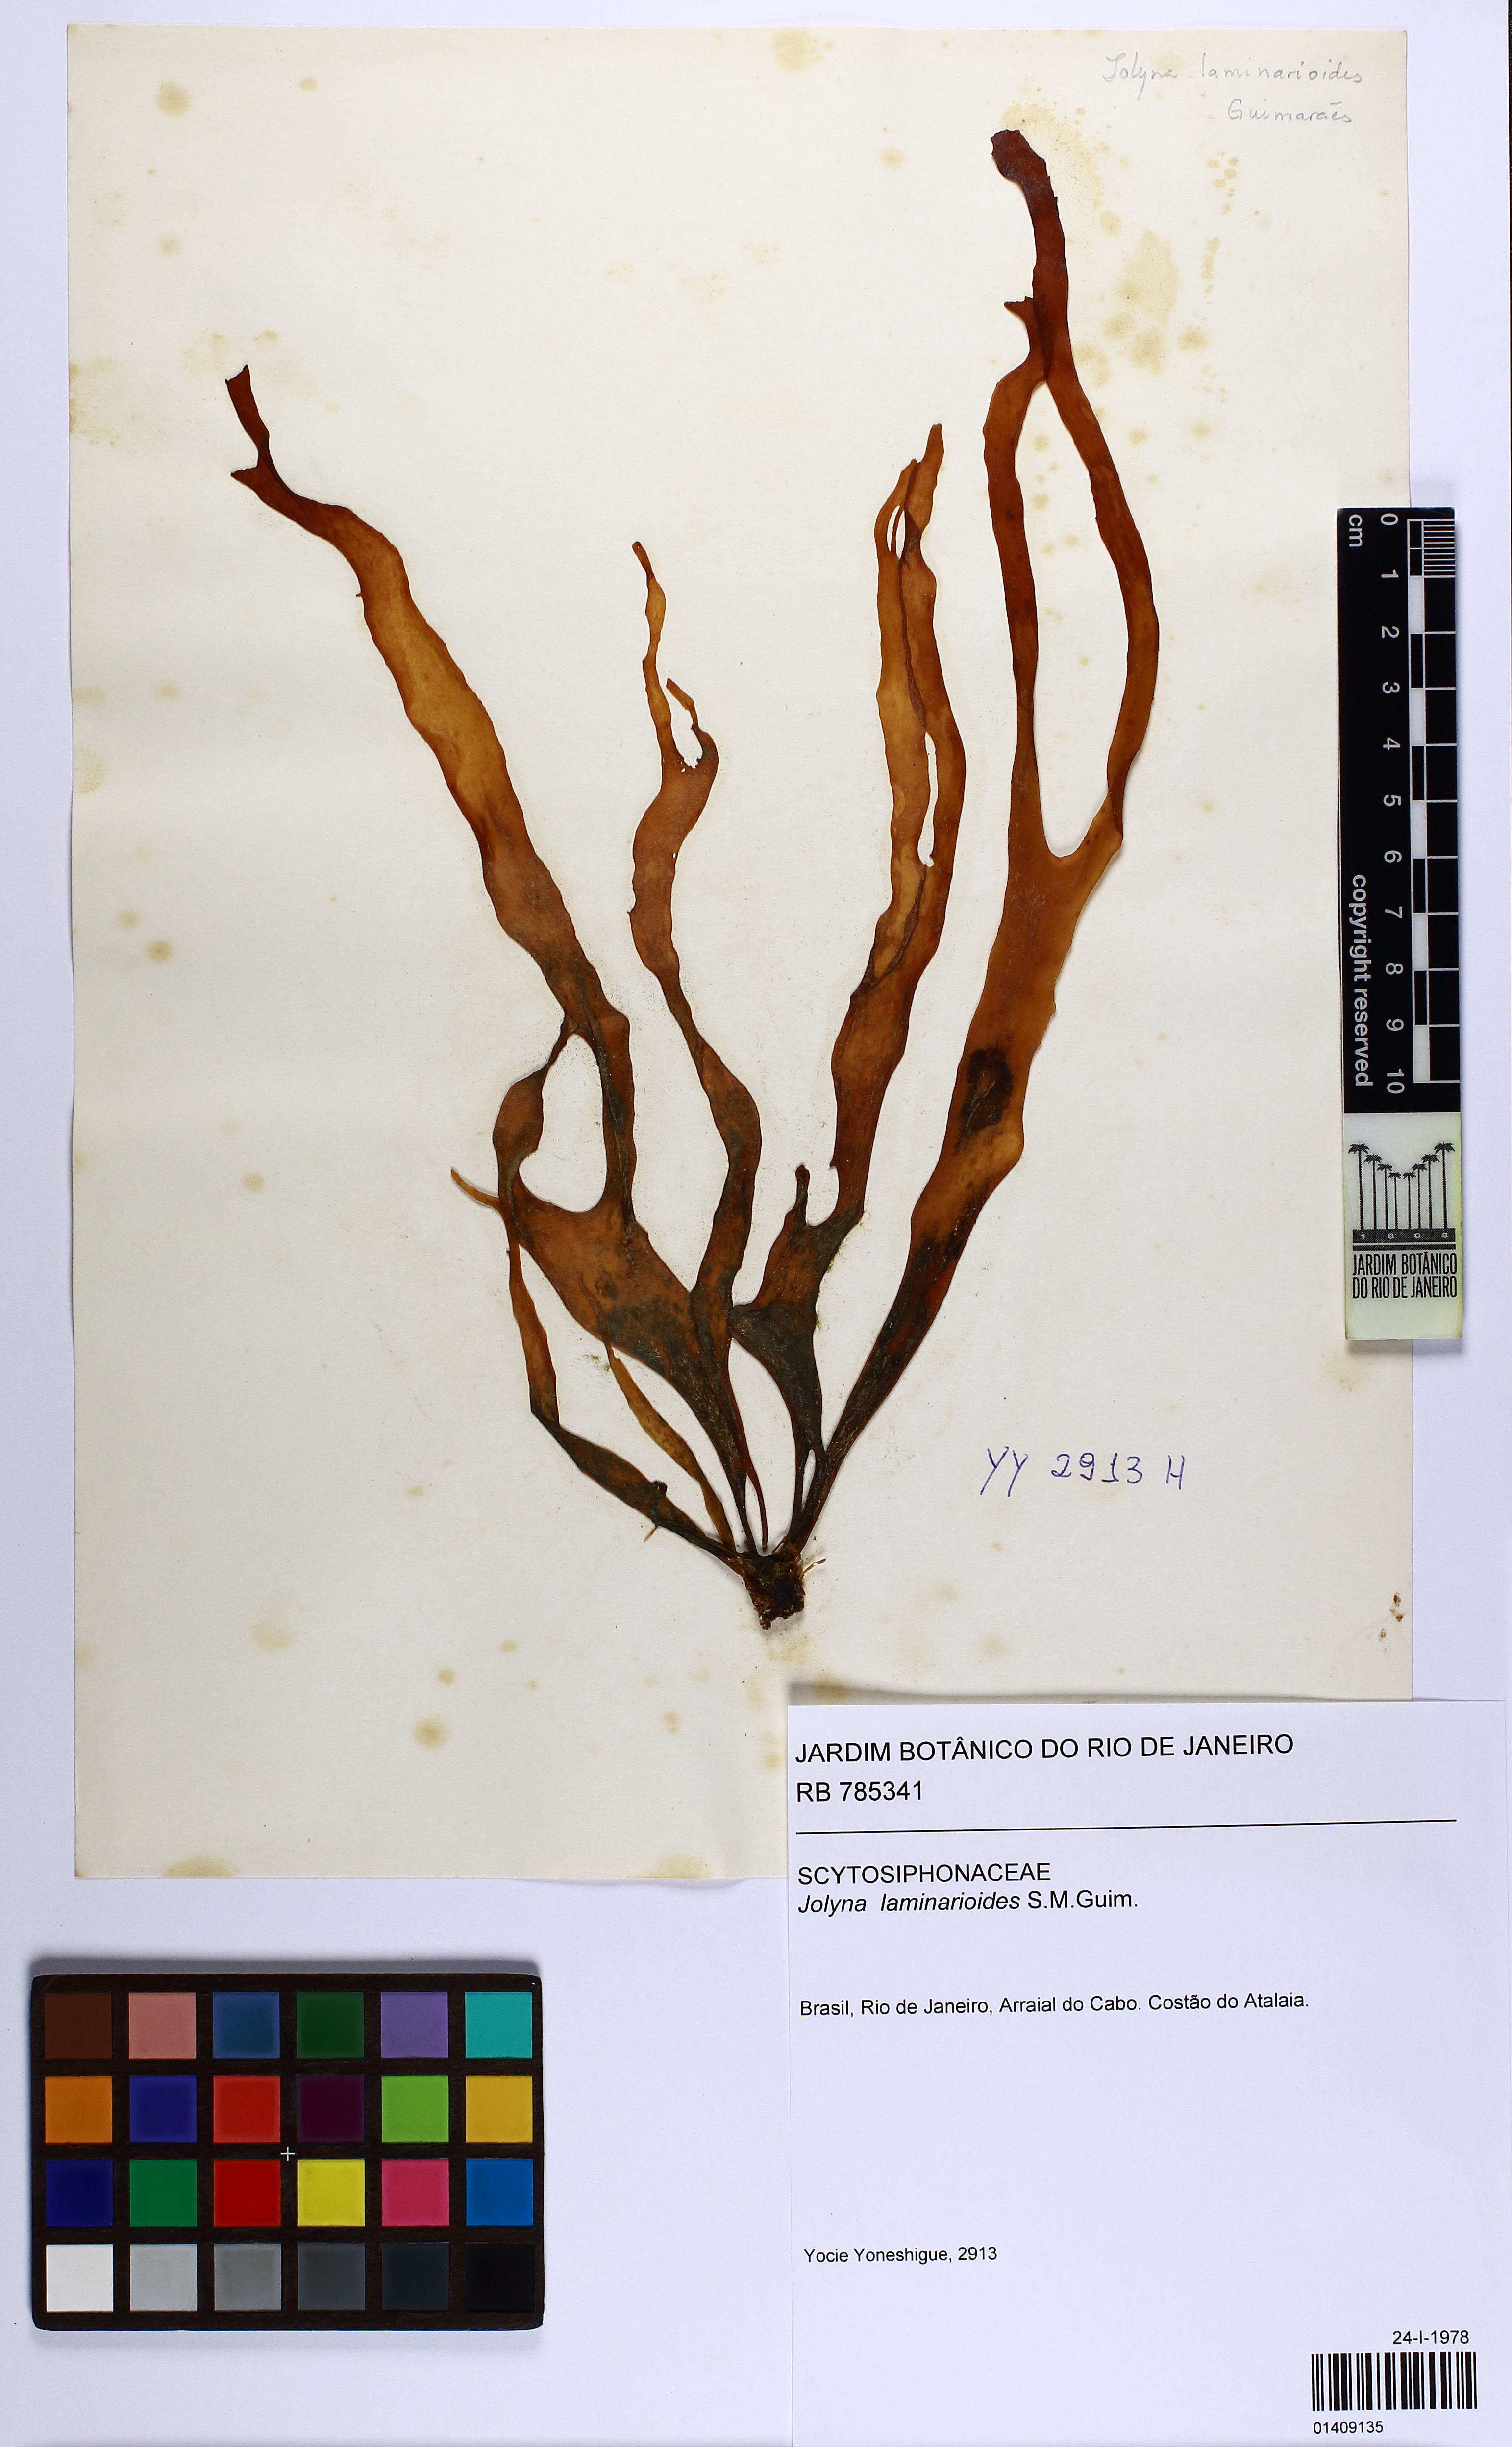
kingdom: Chromista
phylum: Ochrophyta
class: Phaeophyceae
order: Scytosiphonales
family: Scytosiphonaceae
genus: Jolyna
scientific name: Jolyna laminarioides
